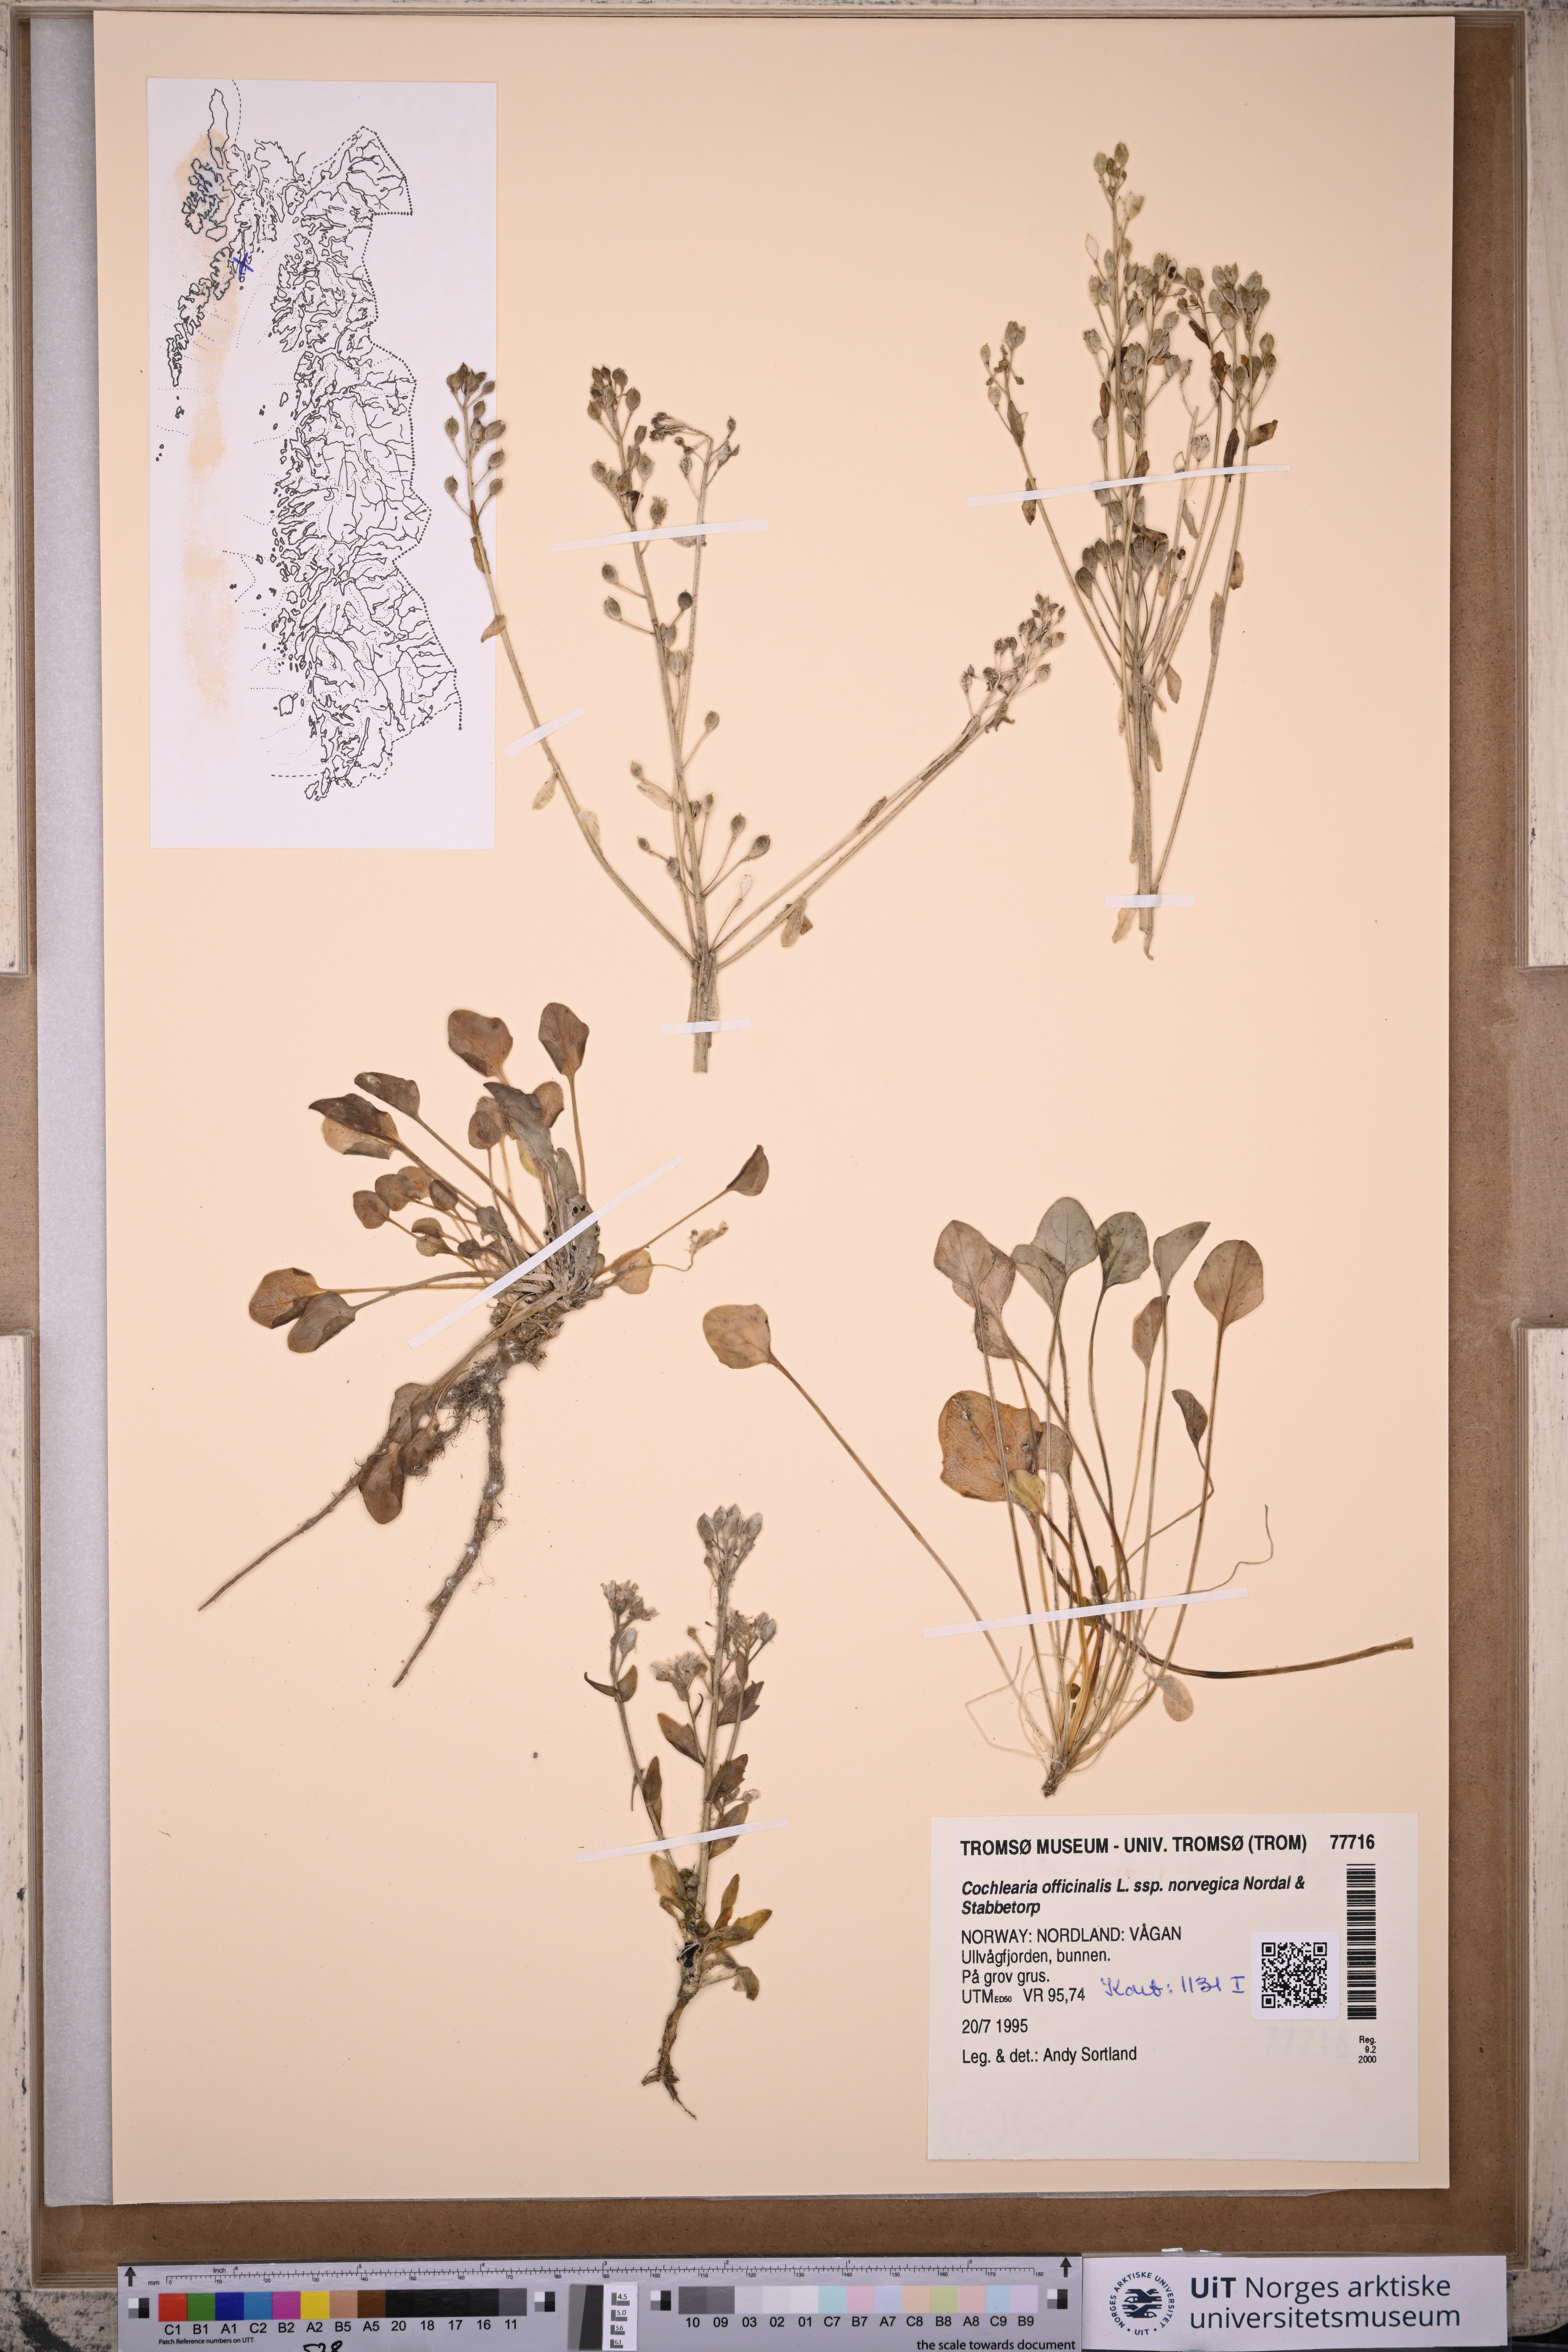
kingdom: Plantae
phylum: Tracheophyta
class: Magnoliopsida
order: Brassicales
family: Brassicaceae
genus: Cochlearia
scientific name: Cochlearia officinalis
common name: Scurvy-grass
